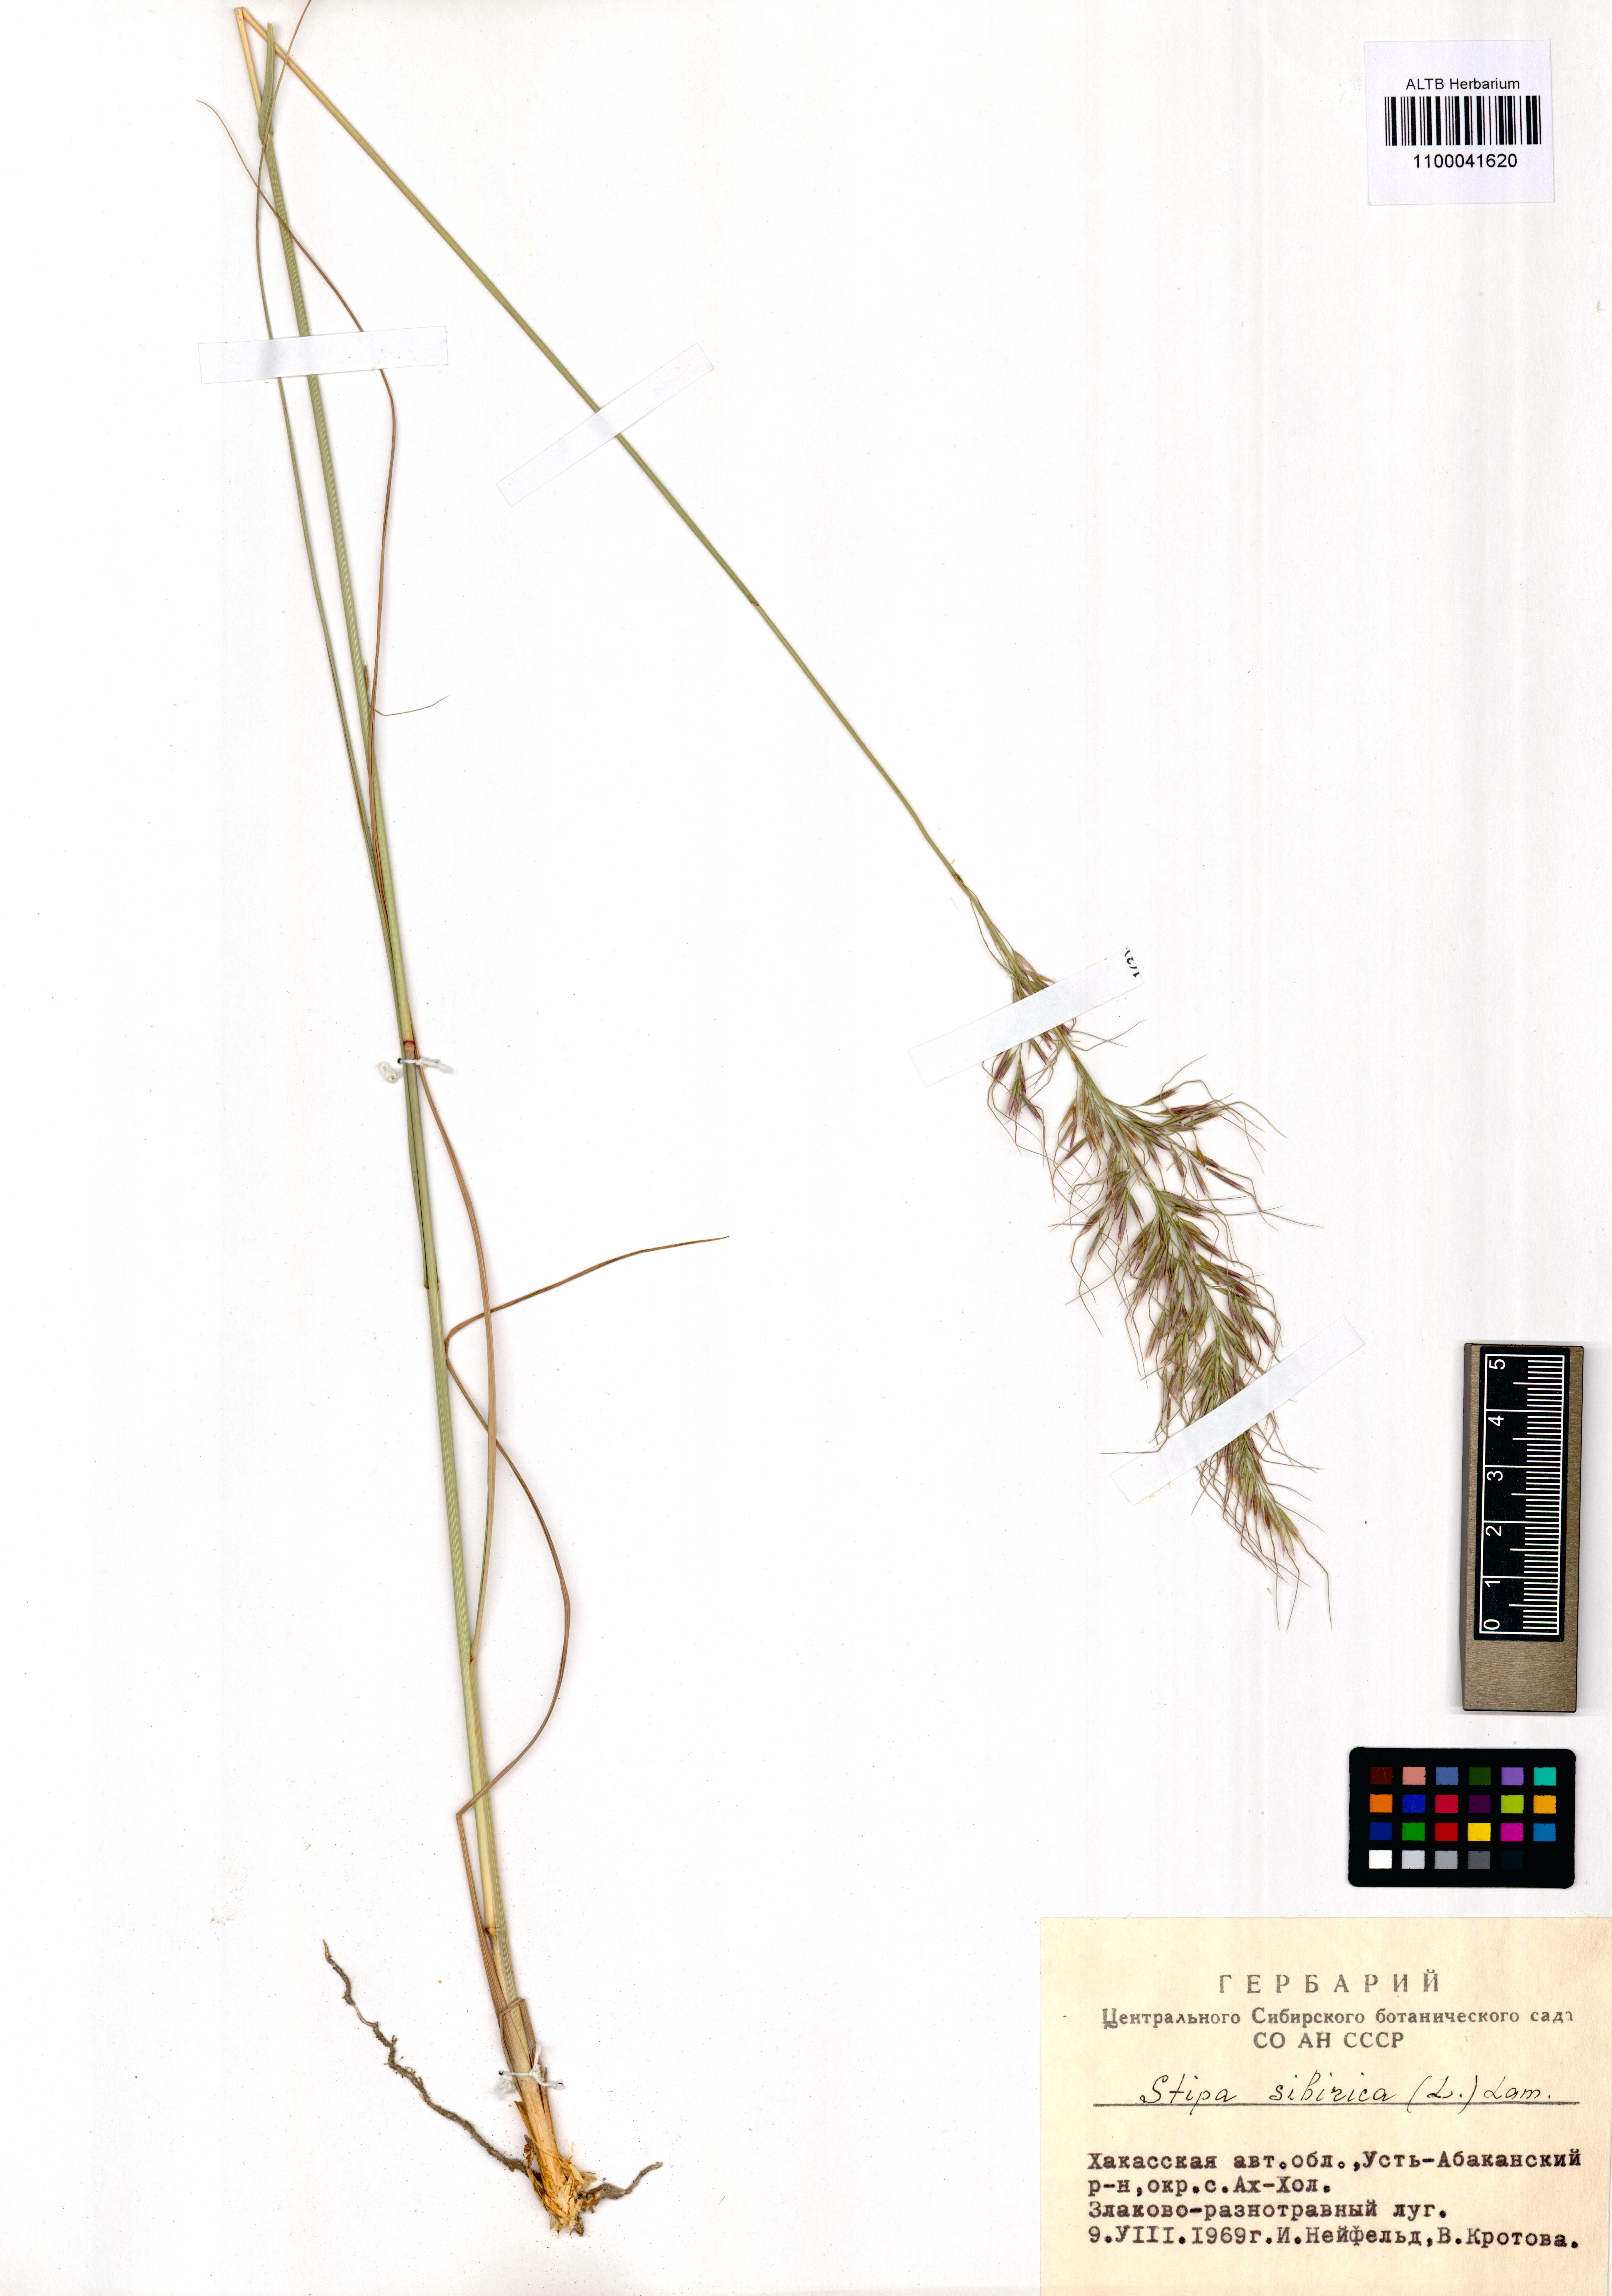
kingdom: Plantae
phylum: Tracheophyta
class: Liliopsida
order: Poales
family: Poaceae
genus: Achnatherum
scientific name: Achnatherum sibiricum
